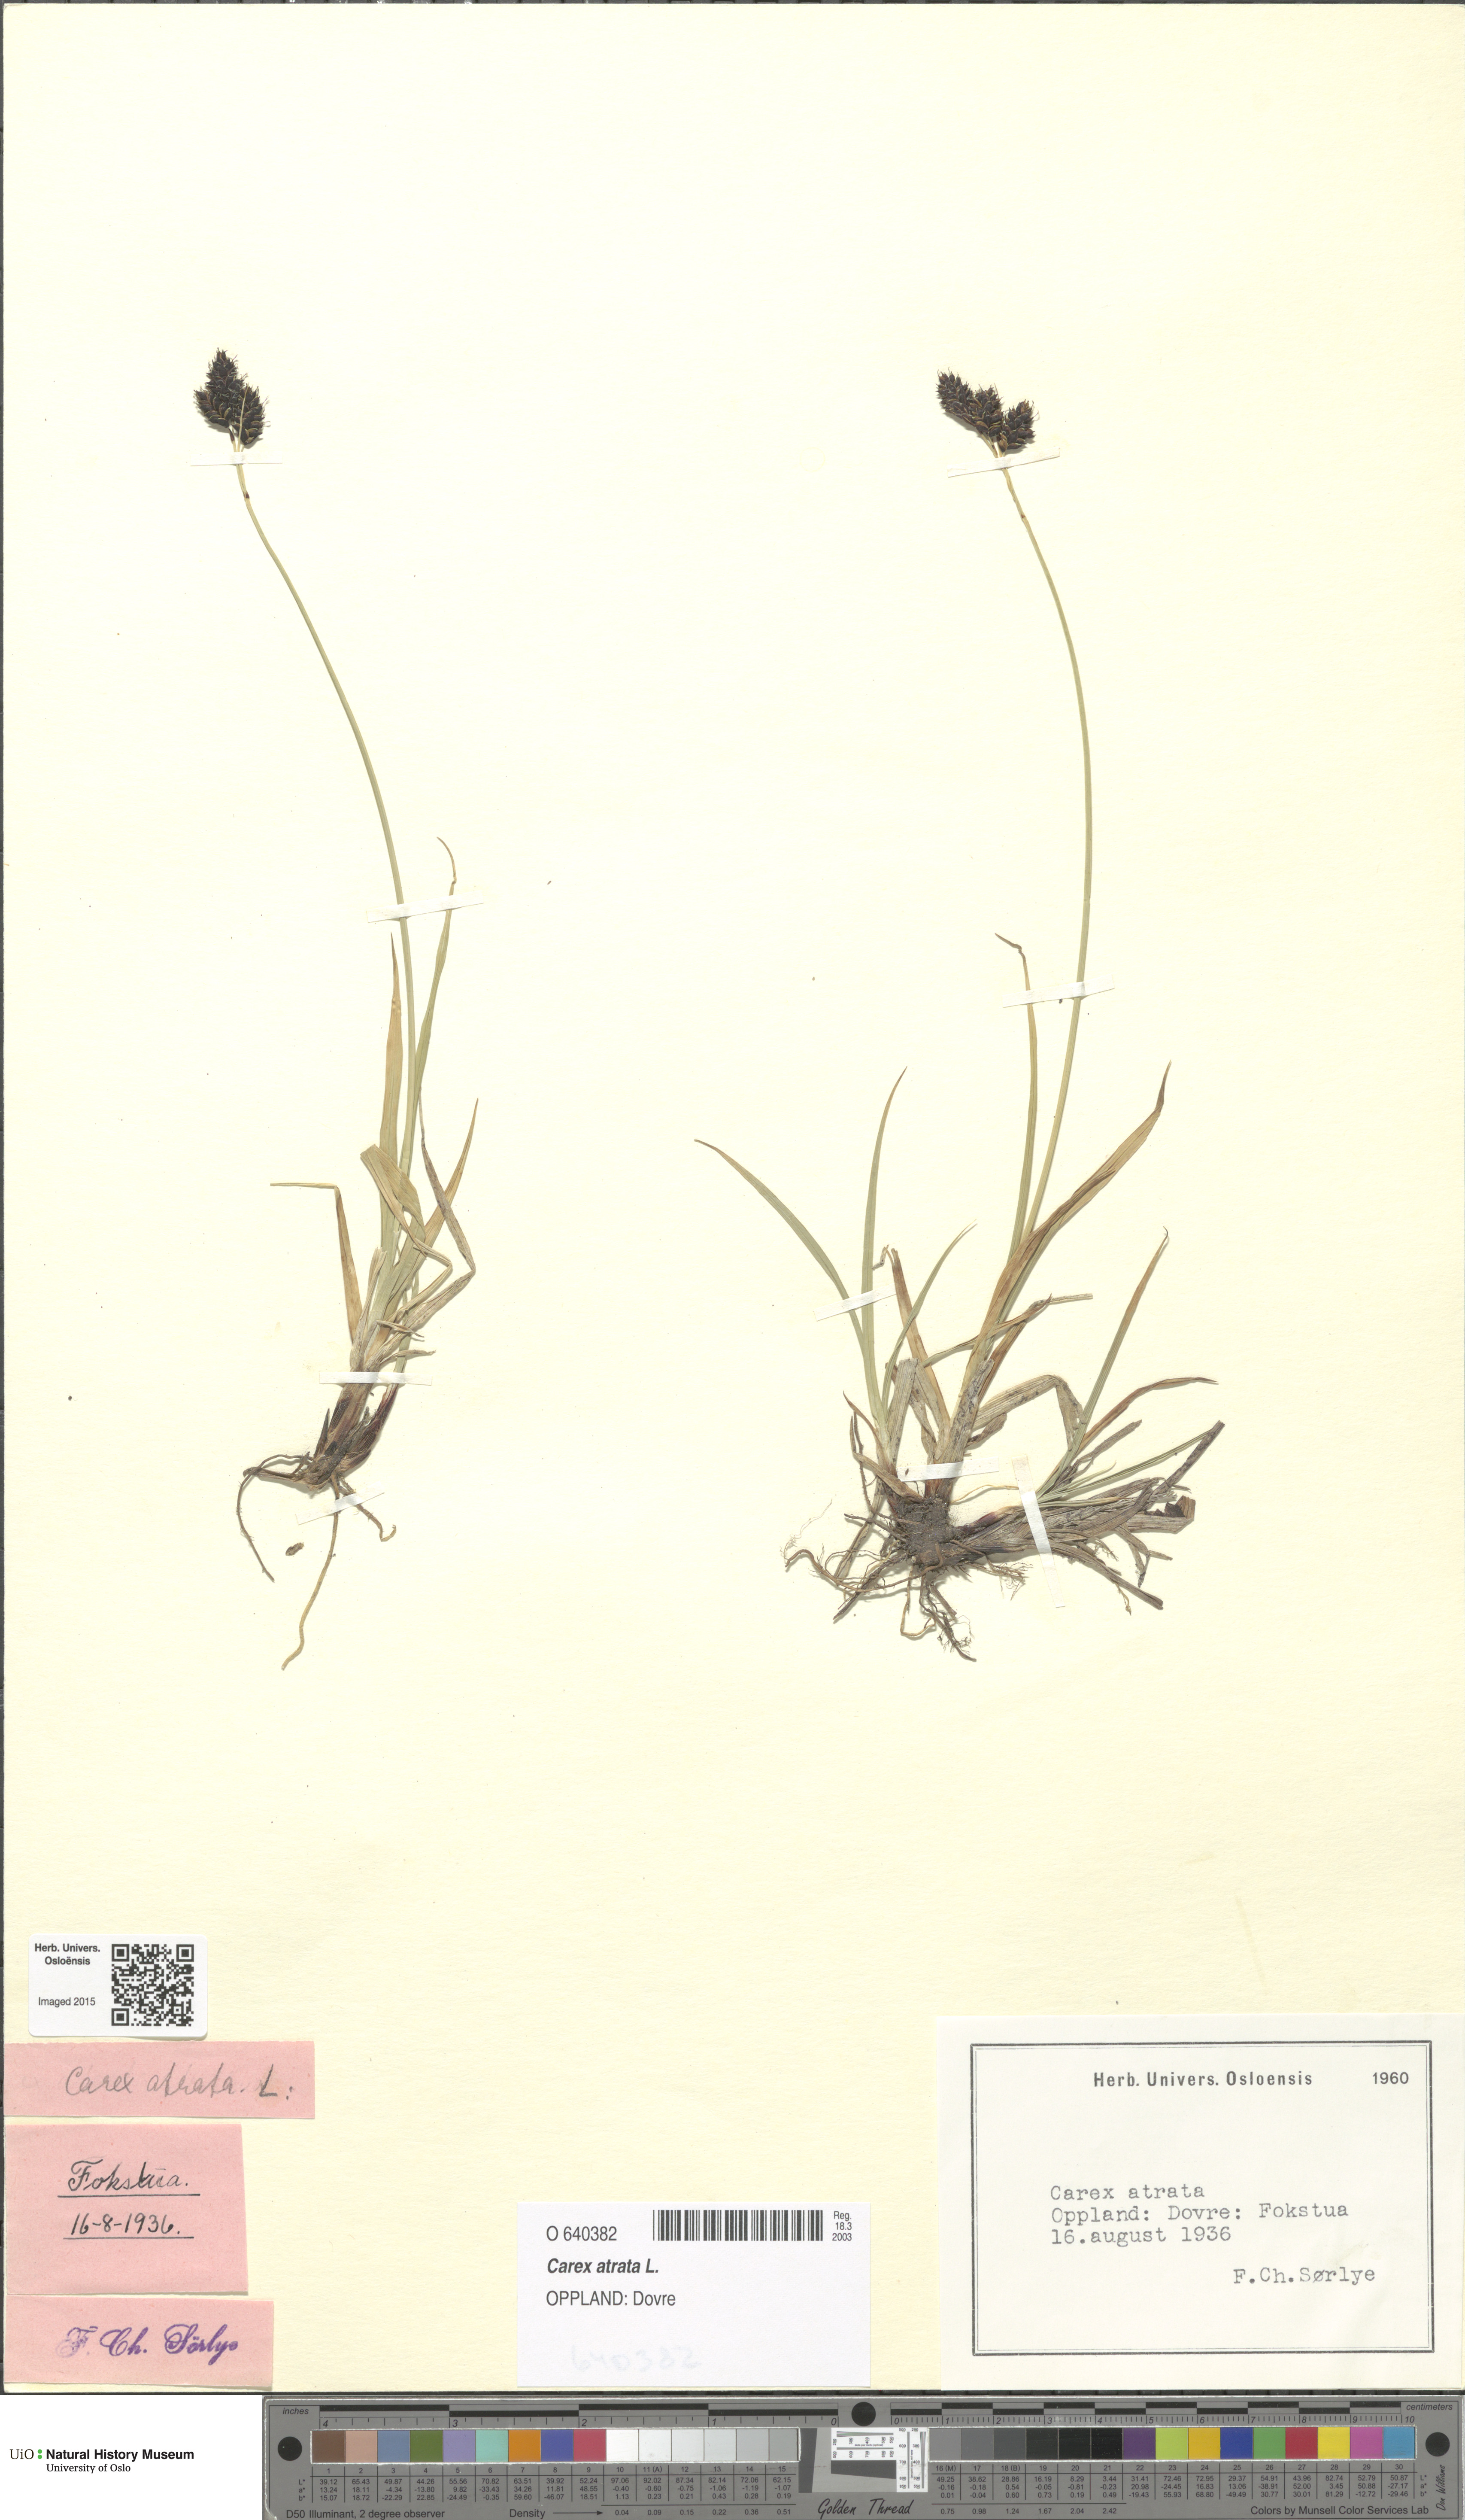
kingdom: Plantae
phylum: Tracheophyta
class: Liliopsida
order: Poales
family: Cyperaceae
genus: Carex
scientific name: Carex atrata
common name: Black alpine sedge
